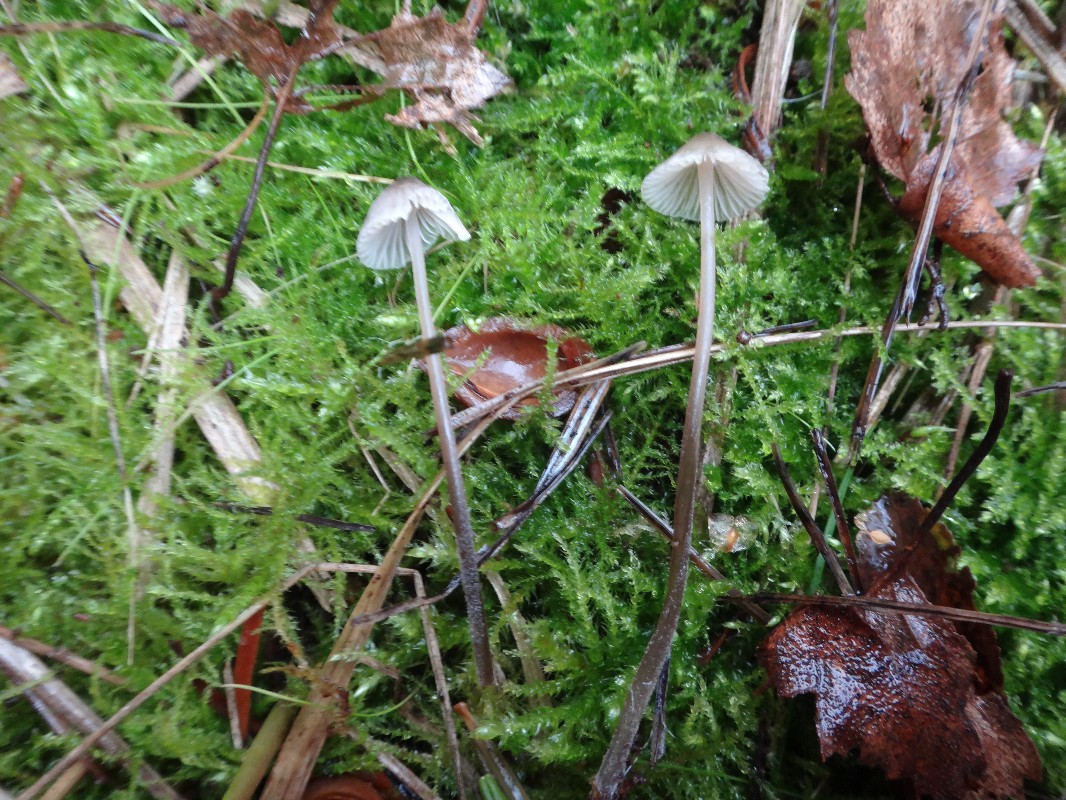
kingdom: Fungi
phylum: Basidiomycota
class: Agaricomycetes
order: Agaricales
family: Mycenaceae
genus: Mycena
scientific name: Mycena leptocephala
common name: klor-huesvamp
